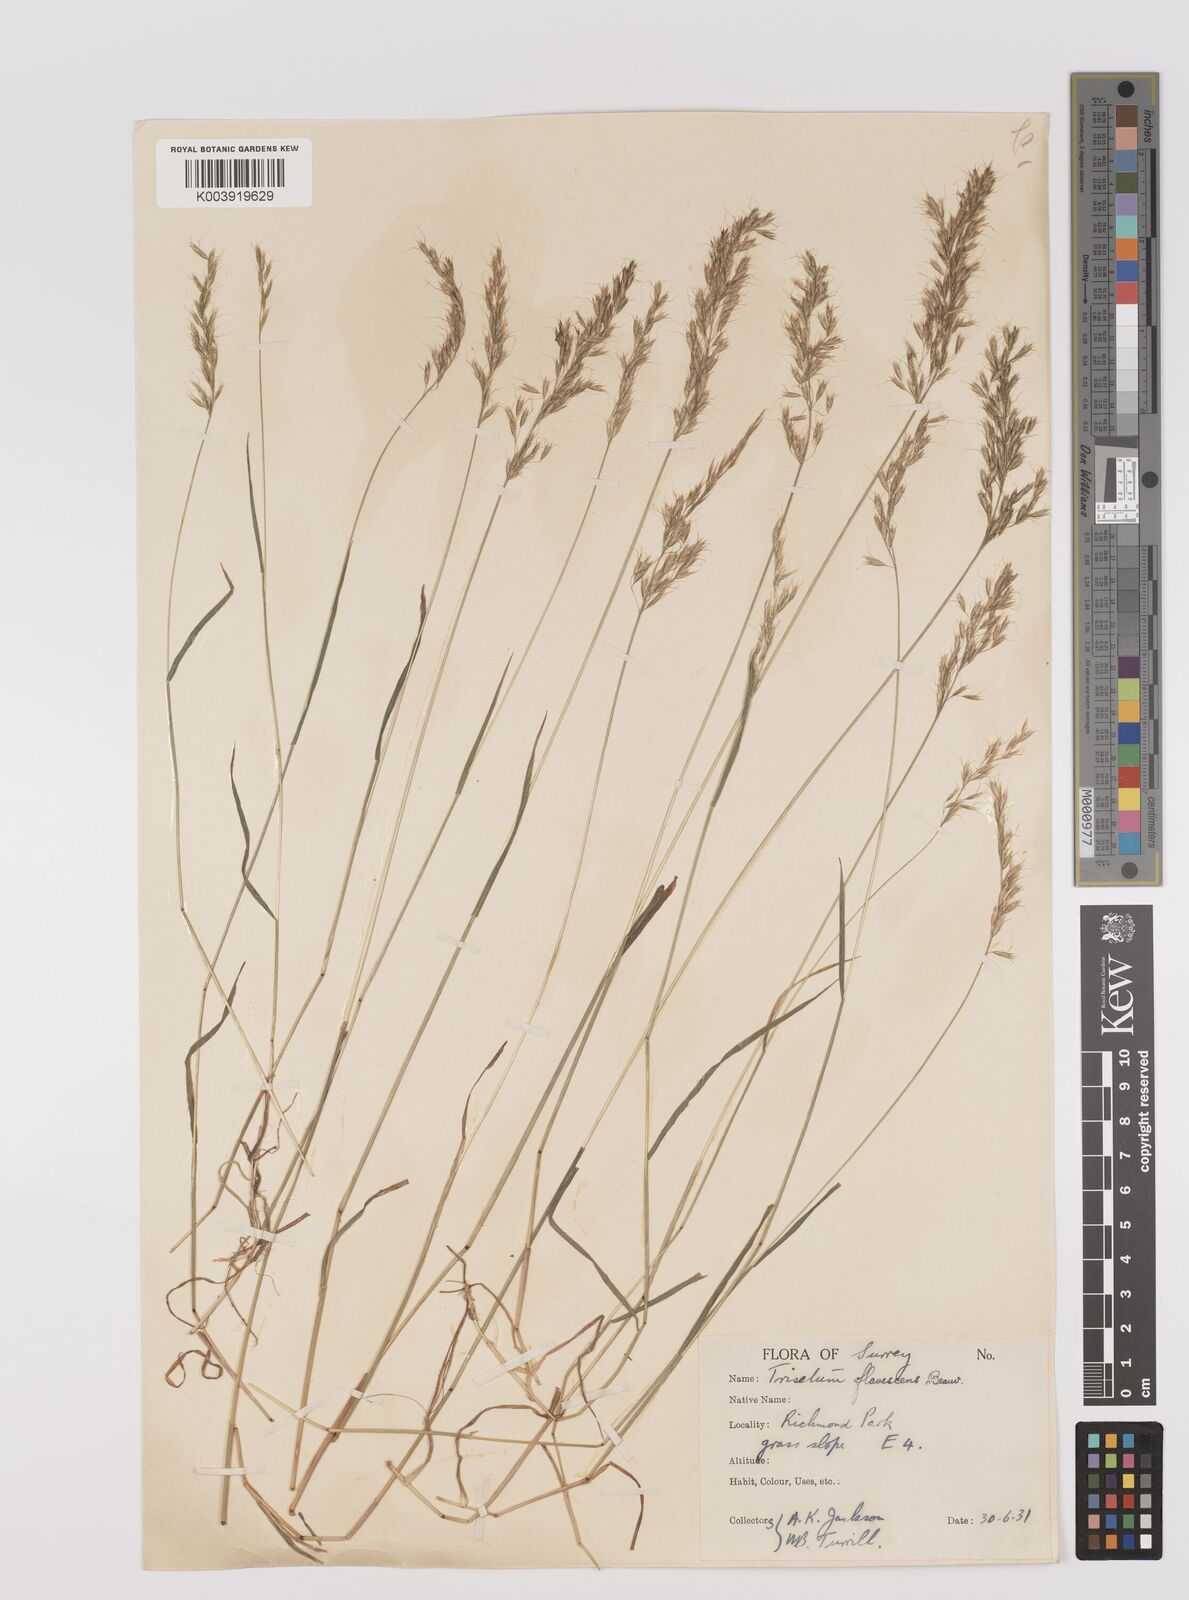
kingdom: Plantae
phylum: Tracheophyta
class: Liliopsida
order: Poales
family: Poaceae
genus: Trisetum
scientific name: Trisetum flavescens
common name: Yellow oat-grass
